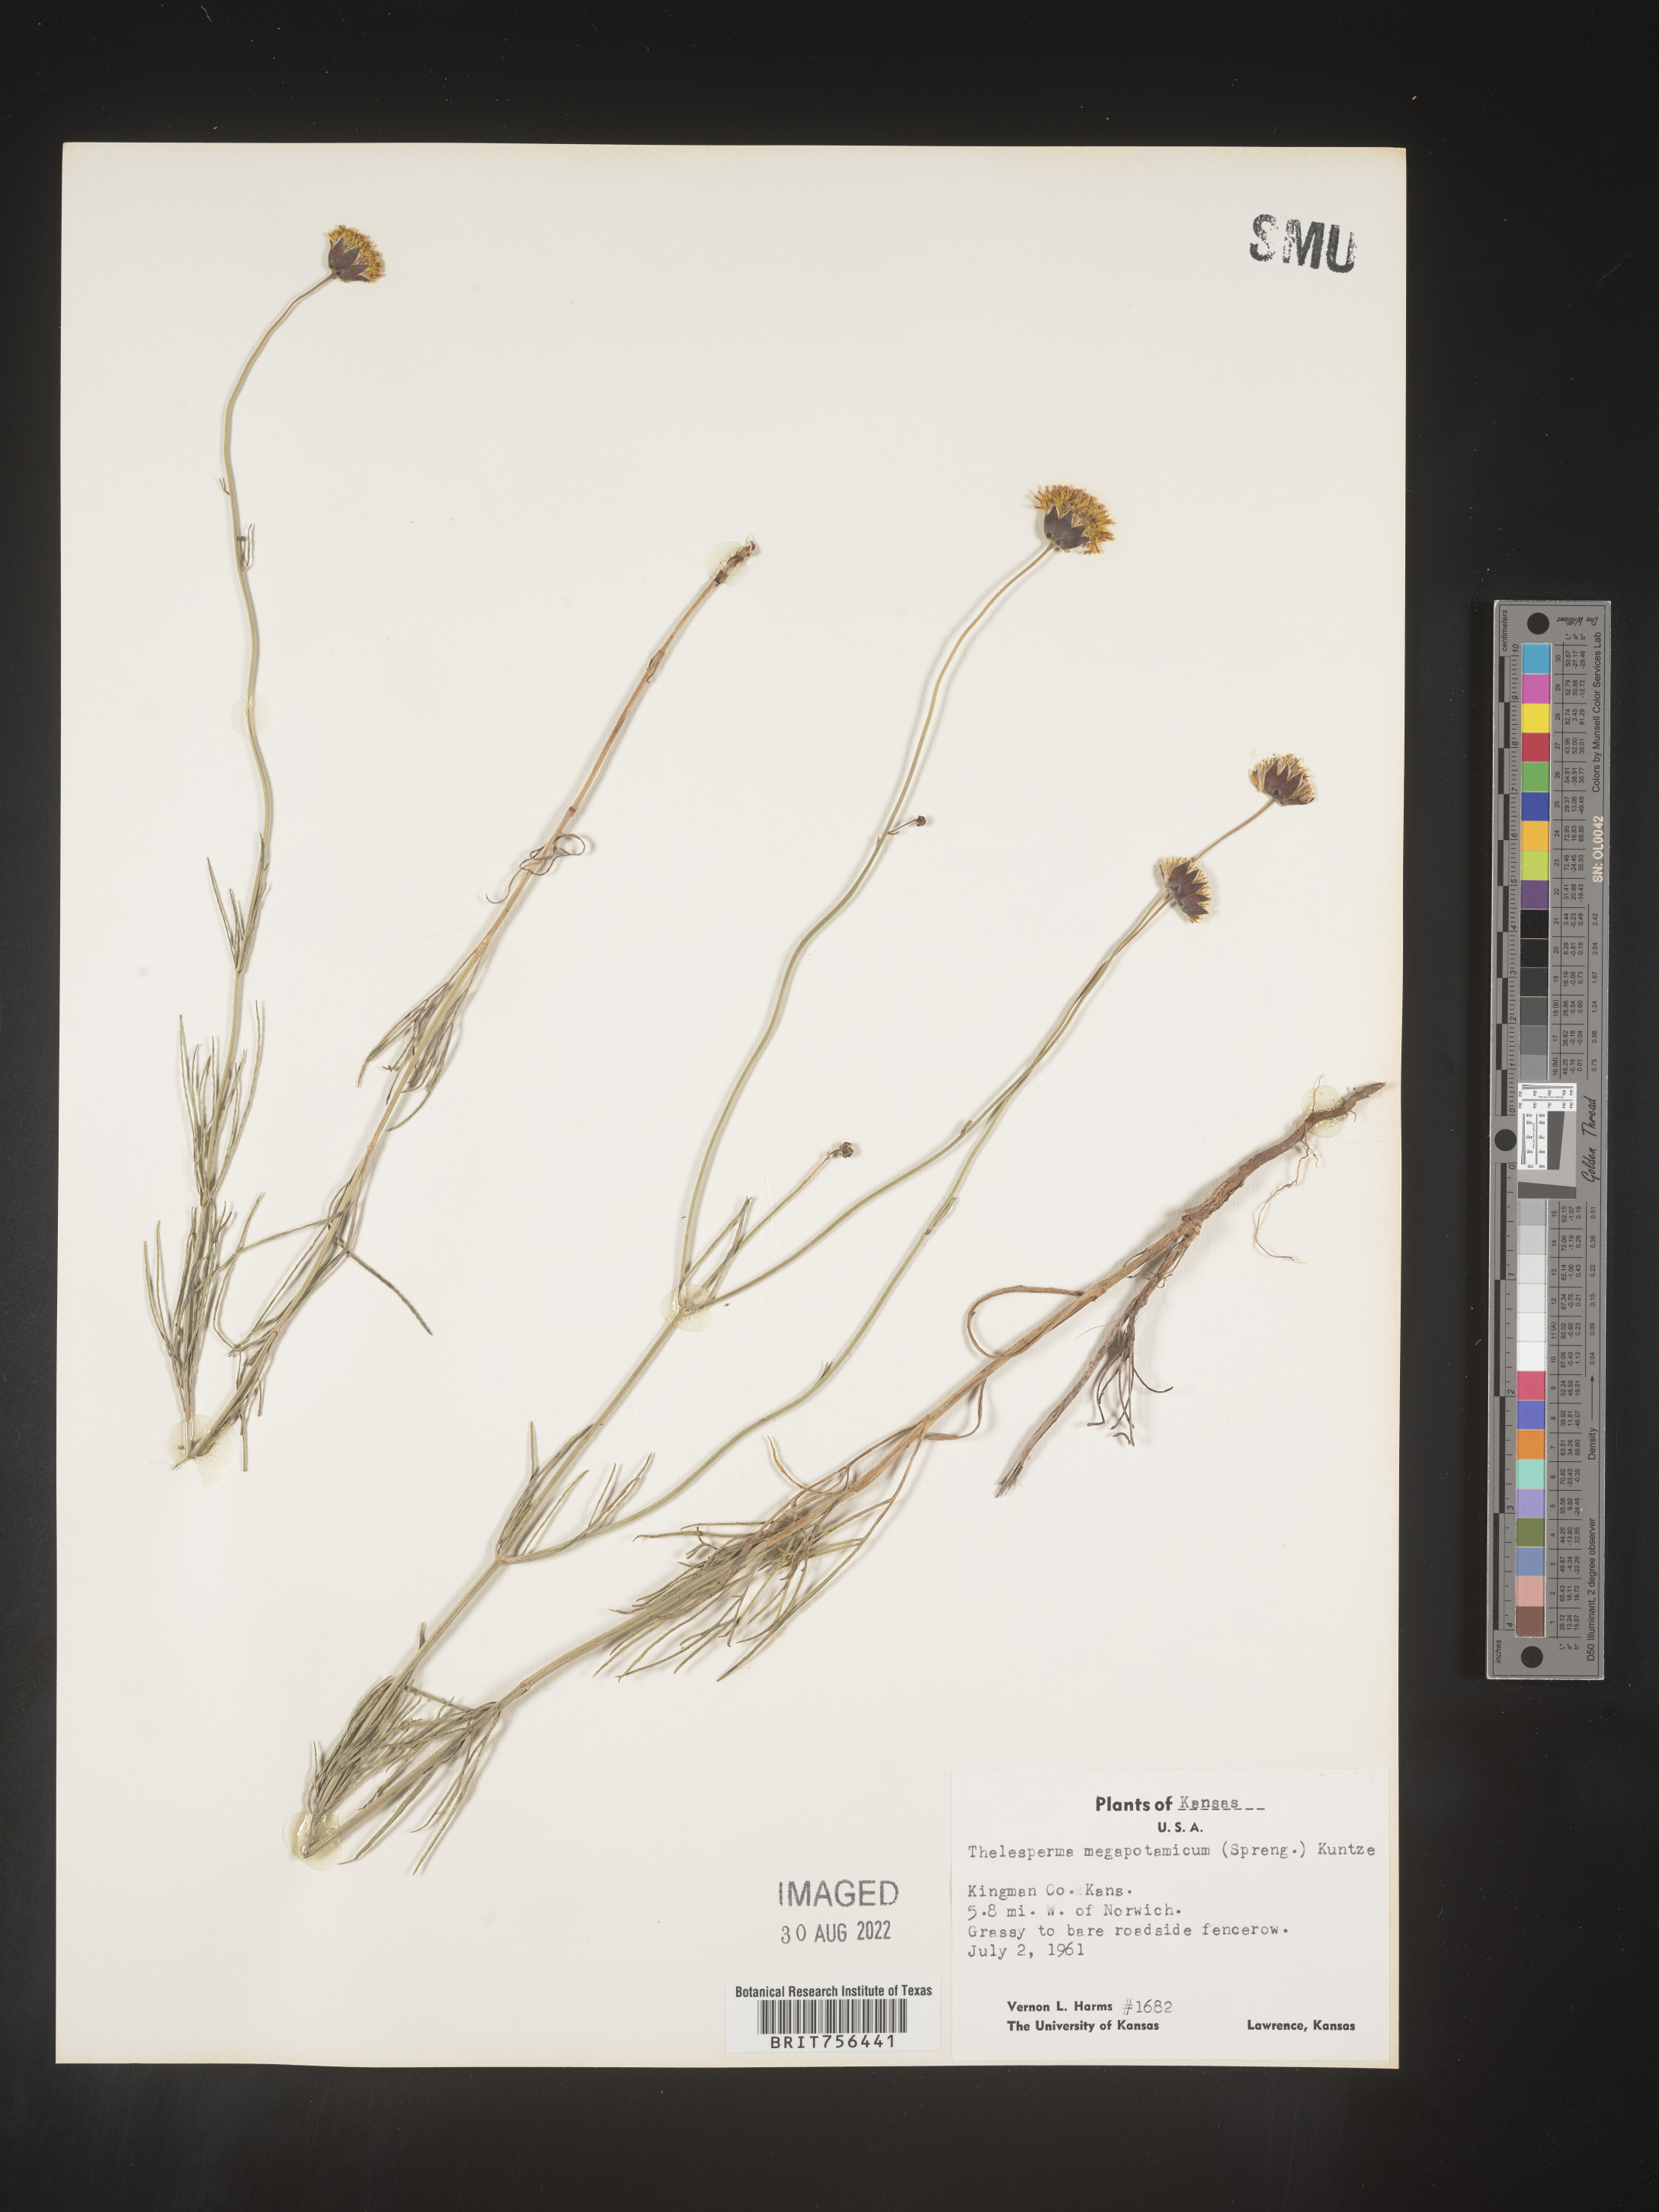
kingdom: Plantae
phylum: Tracheophyta
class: Magnoliopsida
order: Asterales
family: Asteraceae
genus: Thelesperma
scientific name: Thelesperma megapotamicum
